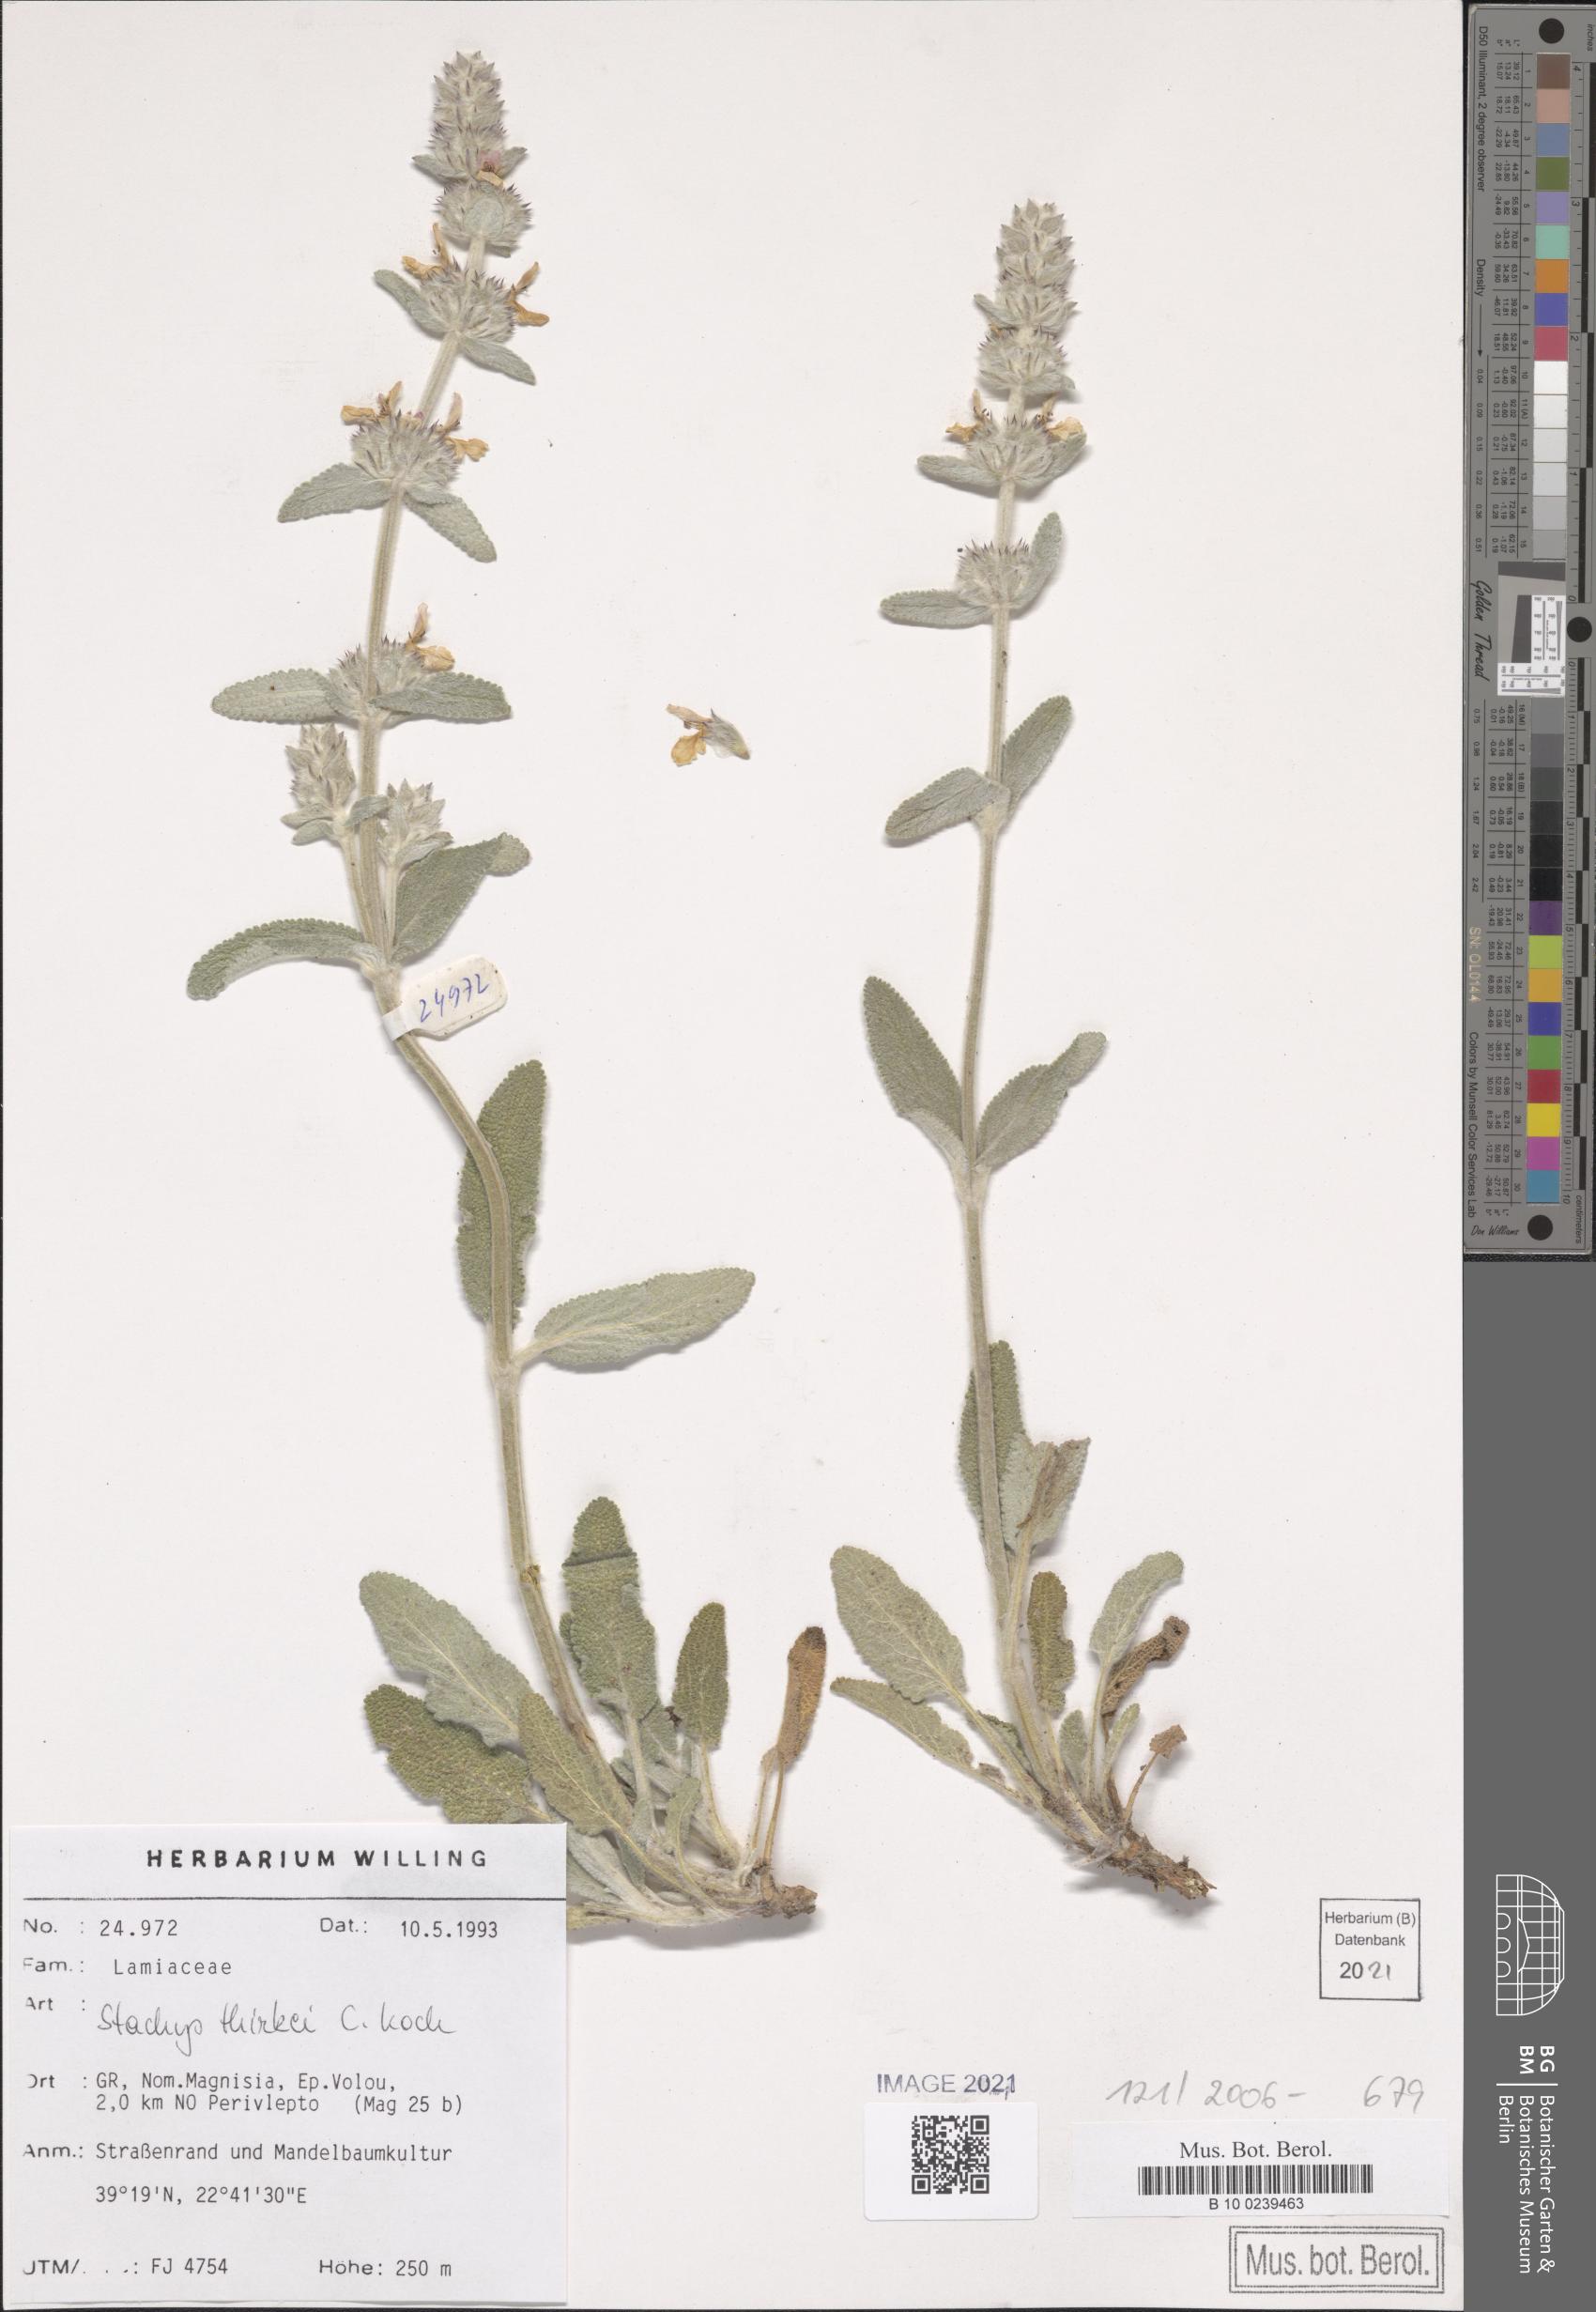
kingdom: Plantae
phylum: Tracheophyta
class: Magnoliopsida
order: Lamiales
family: Lamiaceae
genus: Stachys
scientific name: Stachys thirkei
